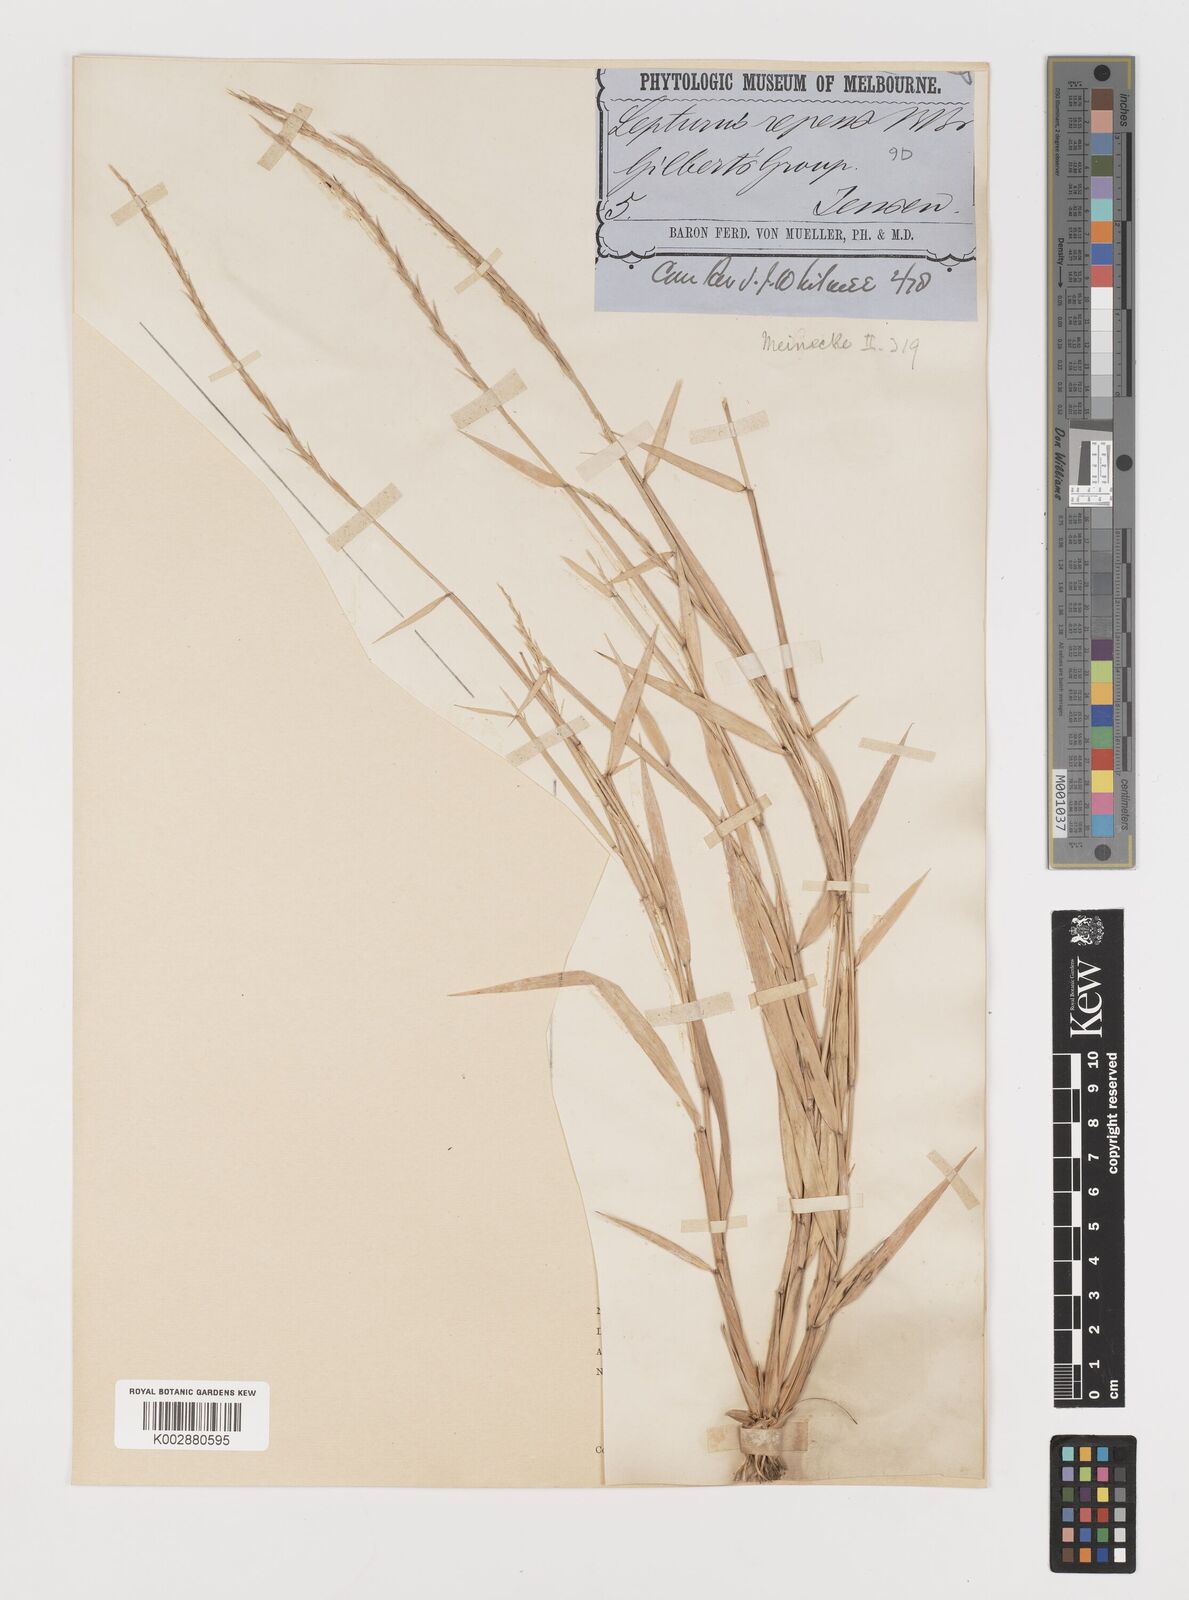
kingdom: Plantae
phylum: Tracheophyta
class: Liliopsida
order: Poales
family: Poaceae
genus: Lepturus
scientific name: Lepturus repens
